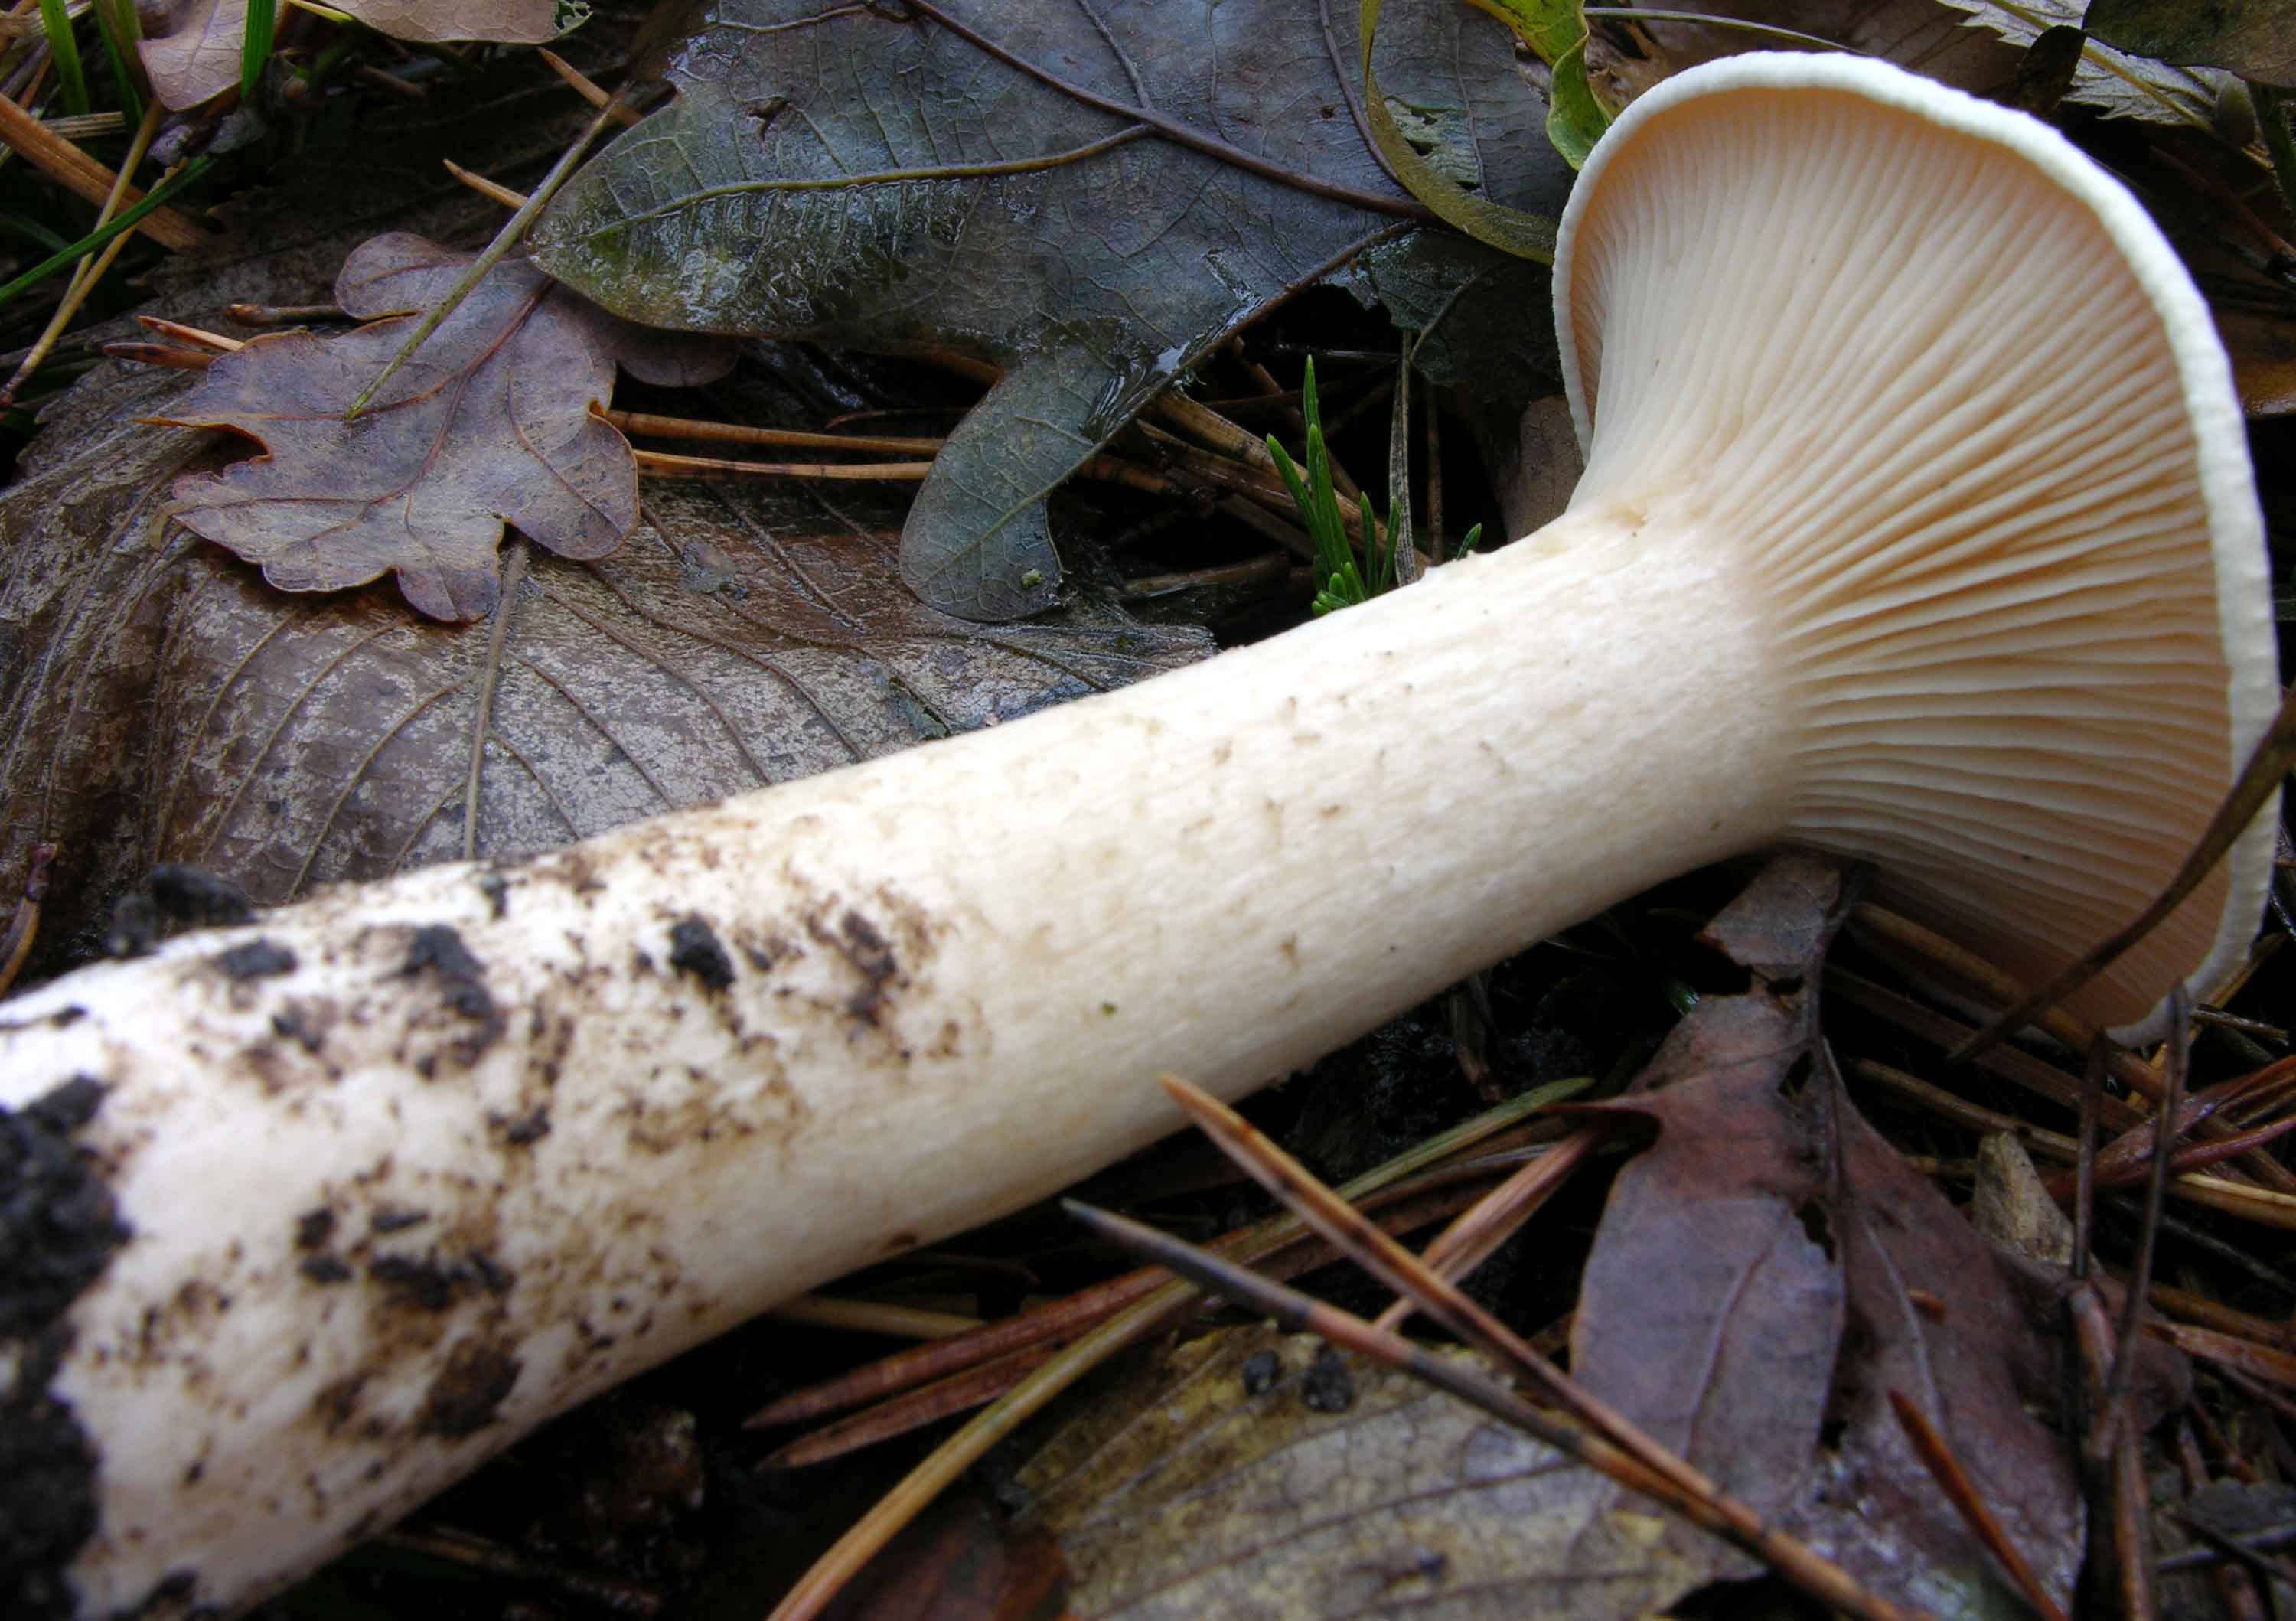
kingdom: Fungi
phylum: Basidiomycota
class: Agaricomycetes
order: Agaricales
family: Tricholomataceae
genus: Infundibulicybe
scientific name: Infundibulicybe geotropa
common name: stor tragthat
